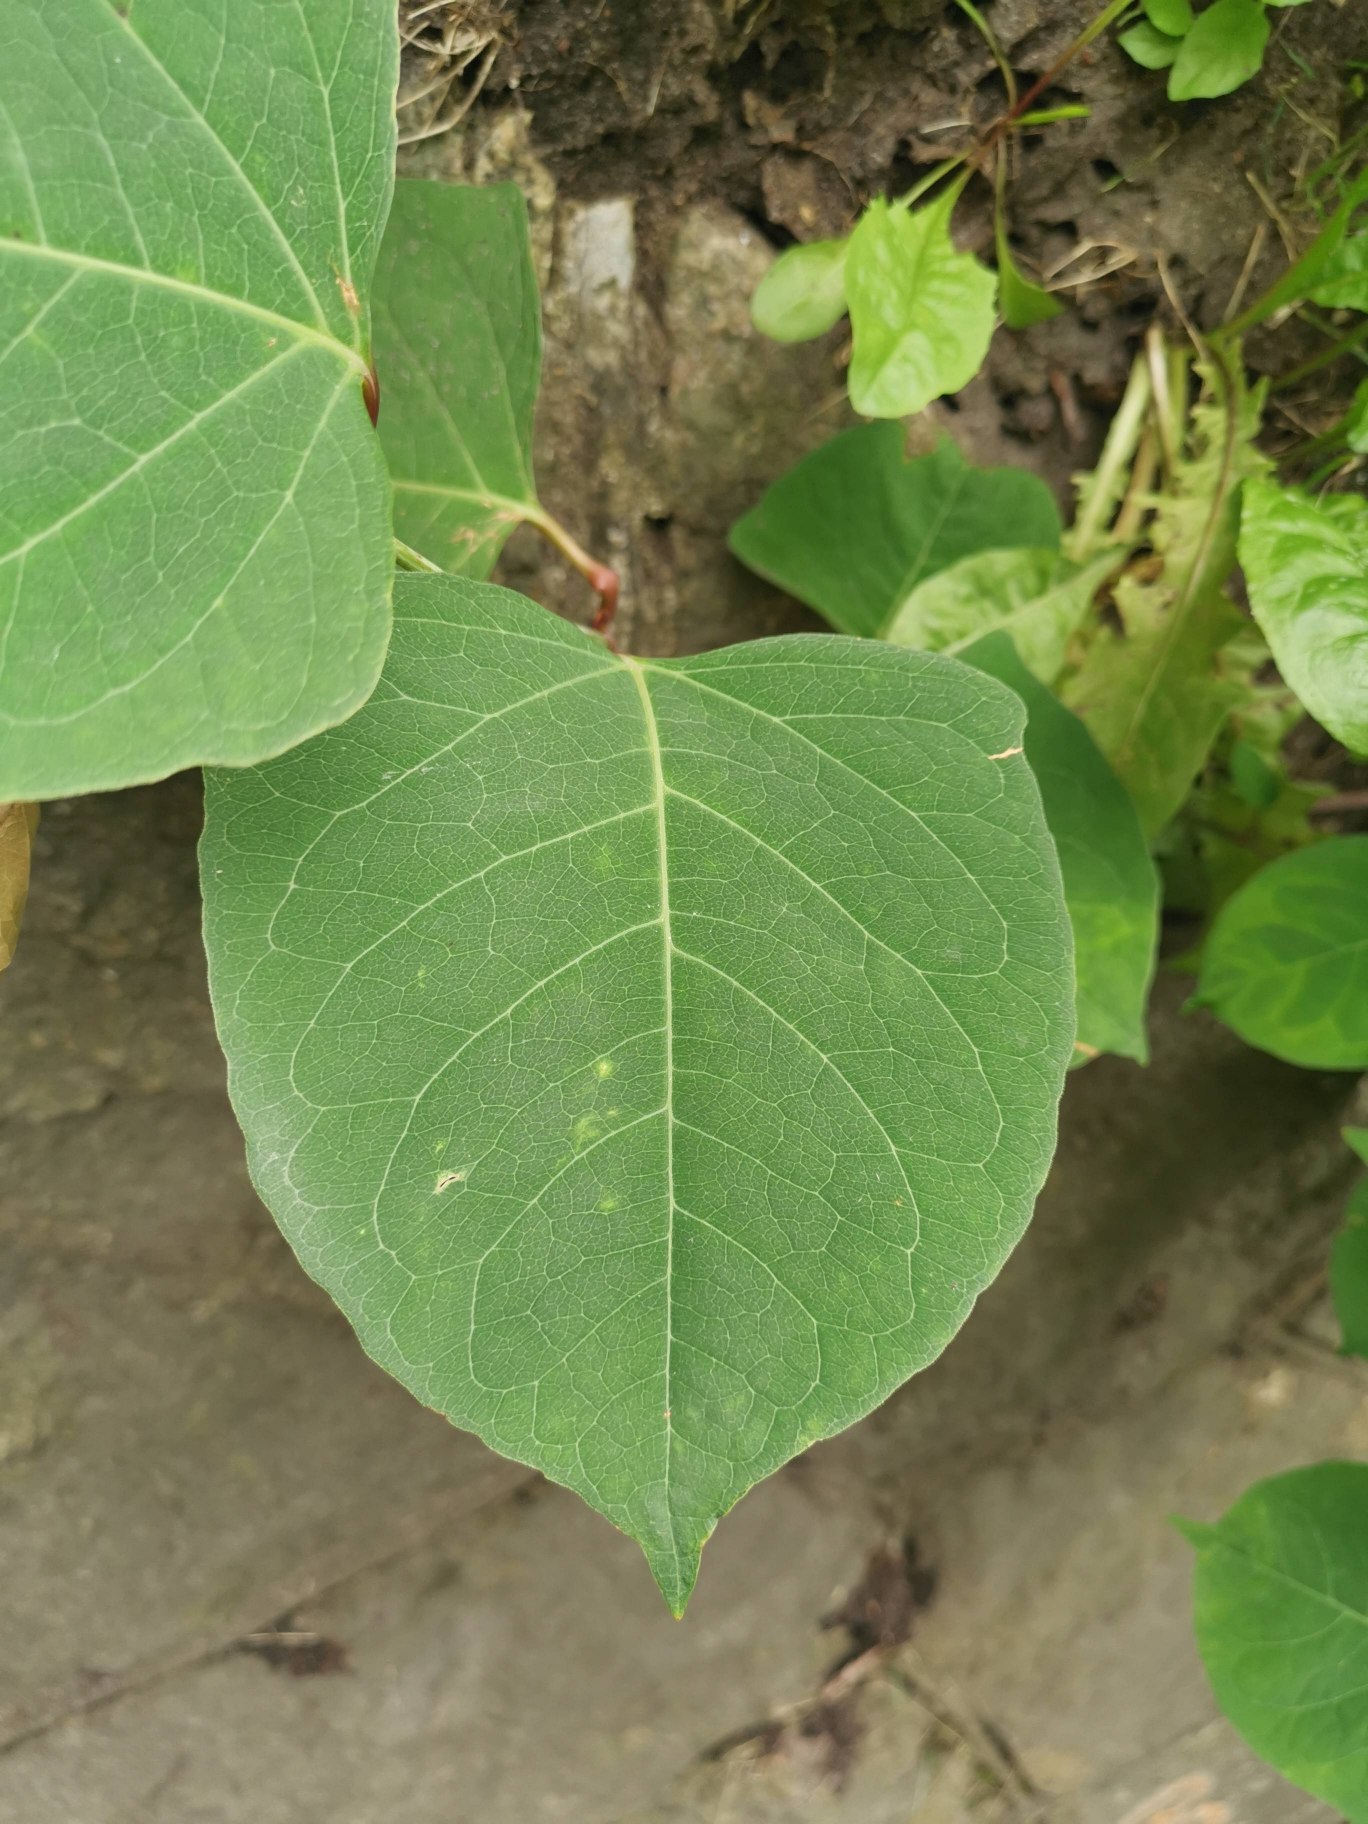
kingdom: Plantae
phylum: Tracheophyta
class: Magnoliopsida
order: Caryophyllales
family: Polygonaceae
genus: Reynoutria
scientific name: Reynoutria japonica
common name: Japan-pileurt
